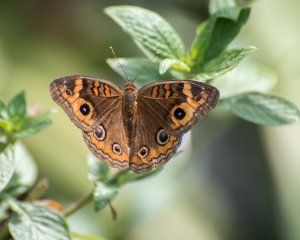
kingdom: Animalia
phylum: Arthropoda
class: Insecta
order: Lepidoptera
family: Nymphalidae
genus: Junonia
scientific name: Junonia evarete
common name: Mangrove Buckeye
